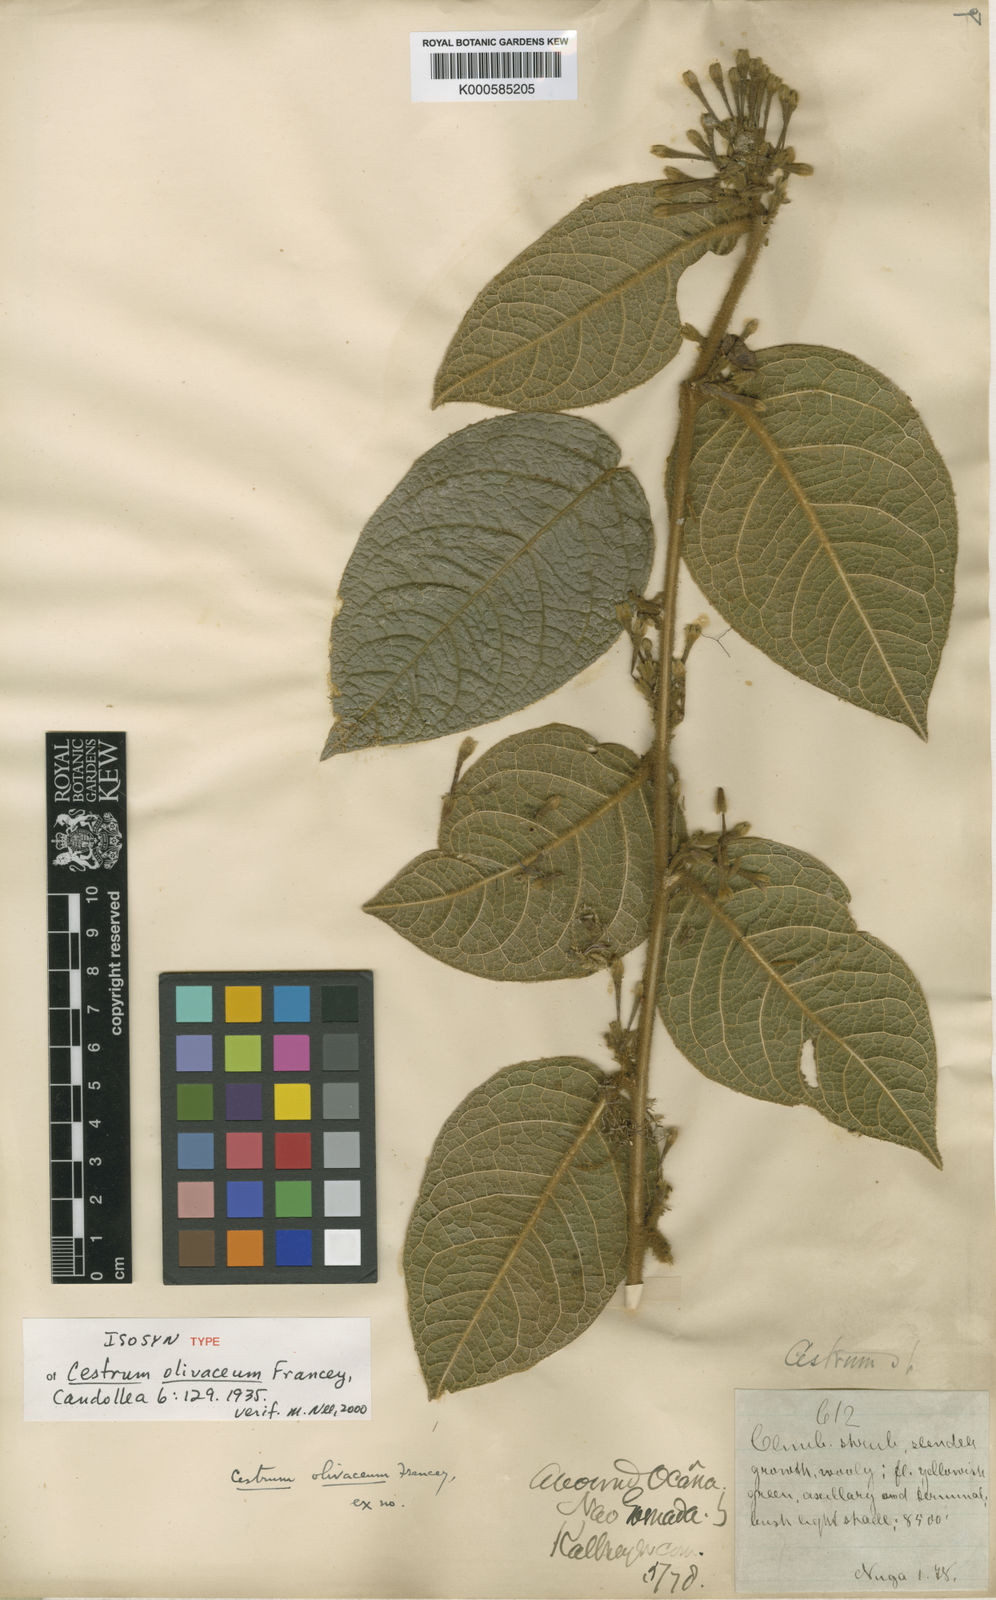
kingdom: Plantae
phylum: Tracheophyta
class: Magnoliopsida
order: Solanales
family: Solanaceae
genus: Cestrum
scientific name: Cestrum olivaceum
